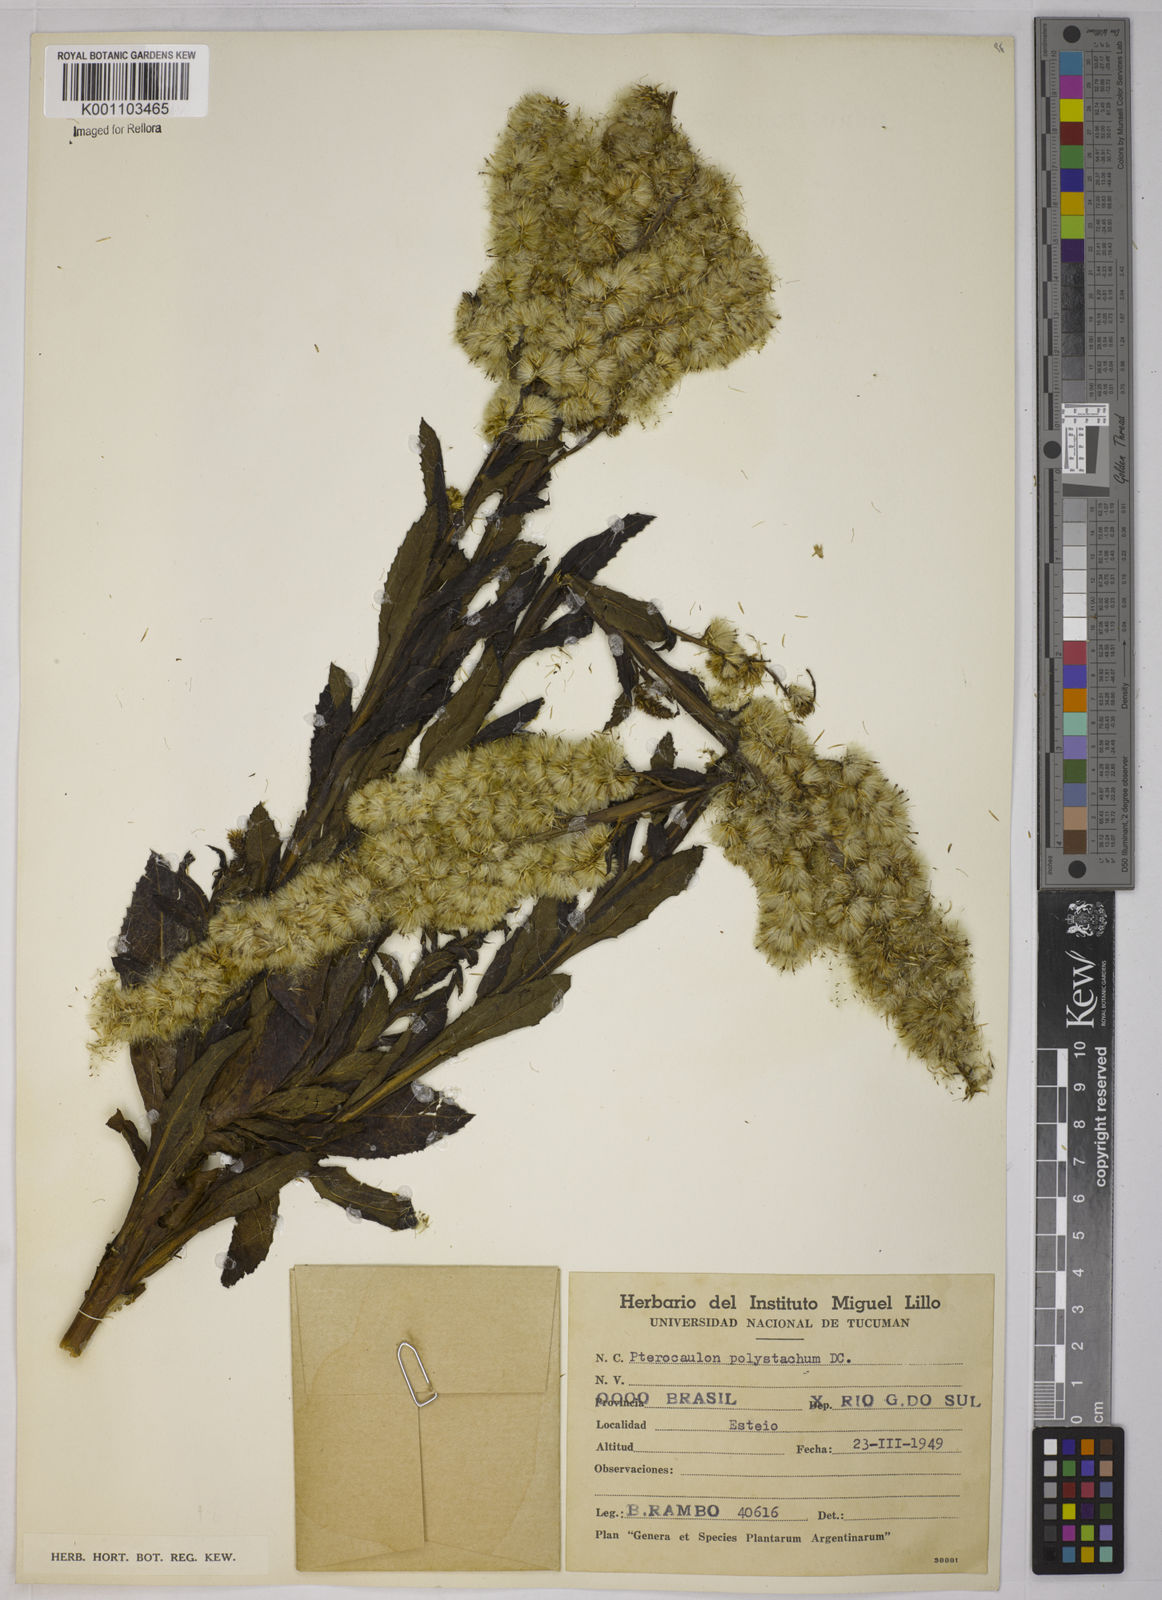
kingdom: Plantae
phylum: Tracheophyta
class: Magnoliopsida
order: Asterales
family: Asteraceae
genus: Pterocaulon
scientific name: Pterocaulon polystachyum
